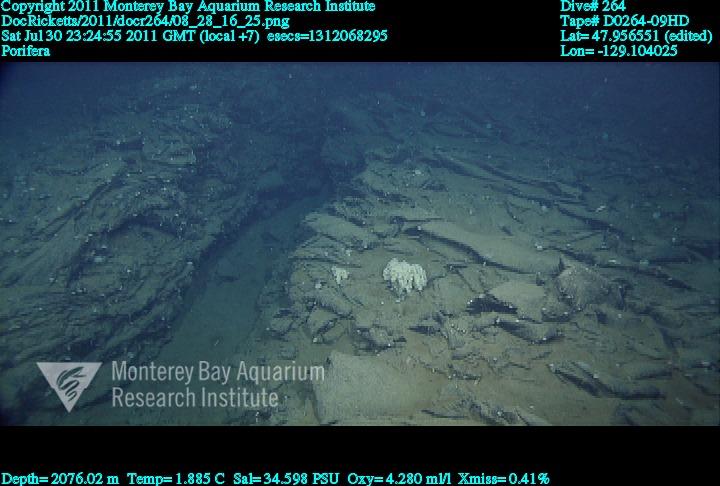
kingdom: Animalia
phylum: Porifera
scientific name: Porifera
